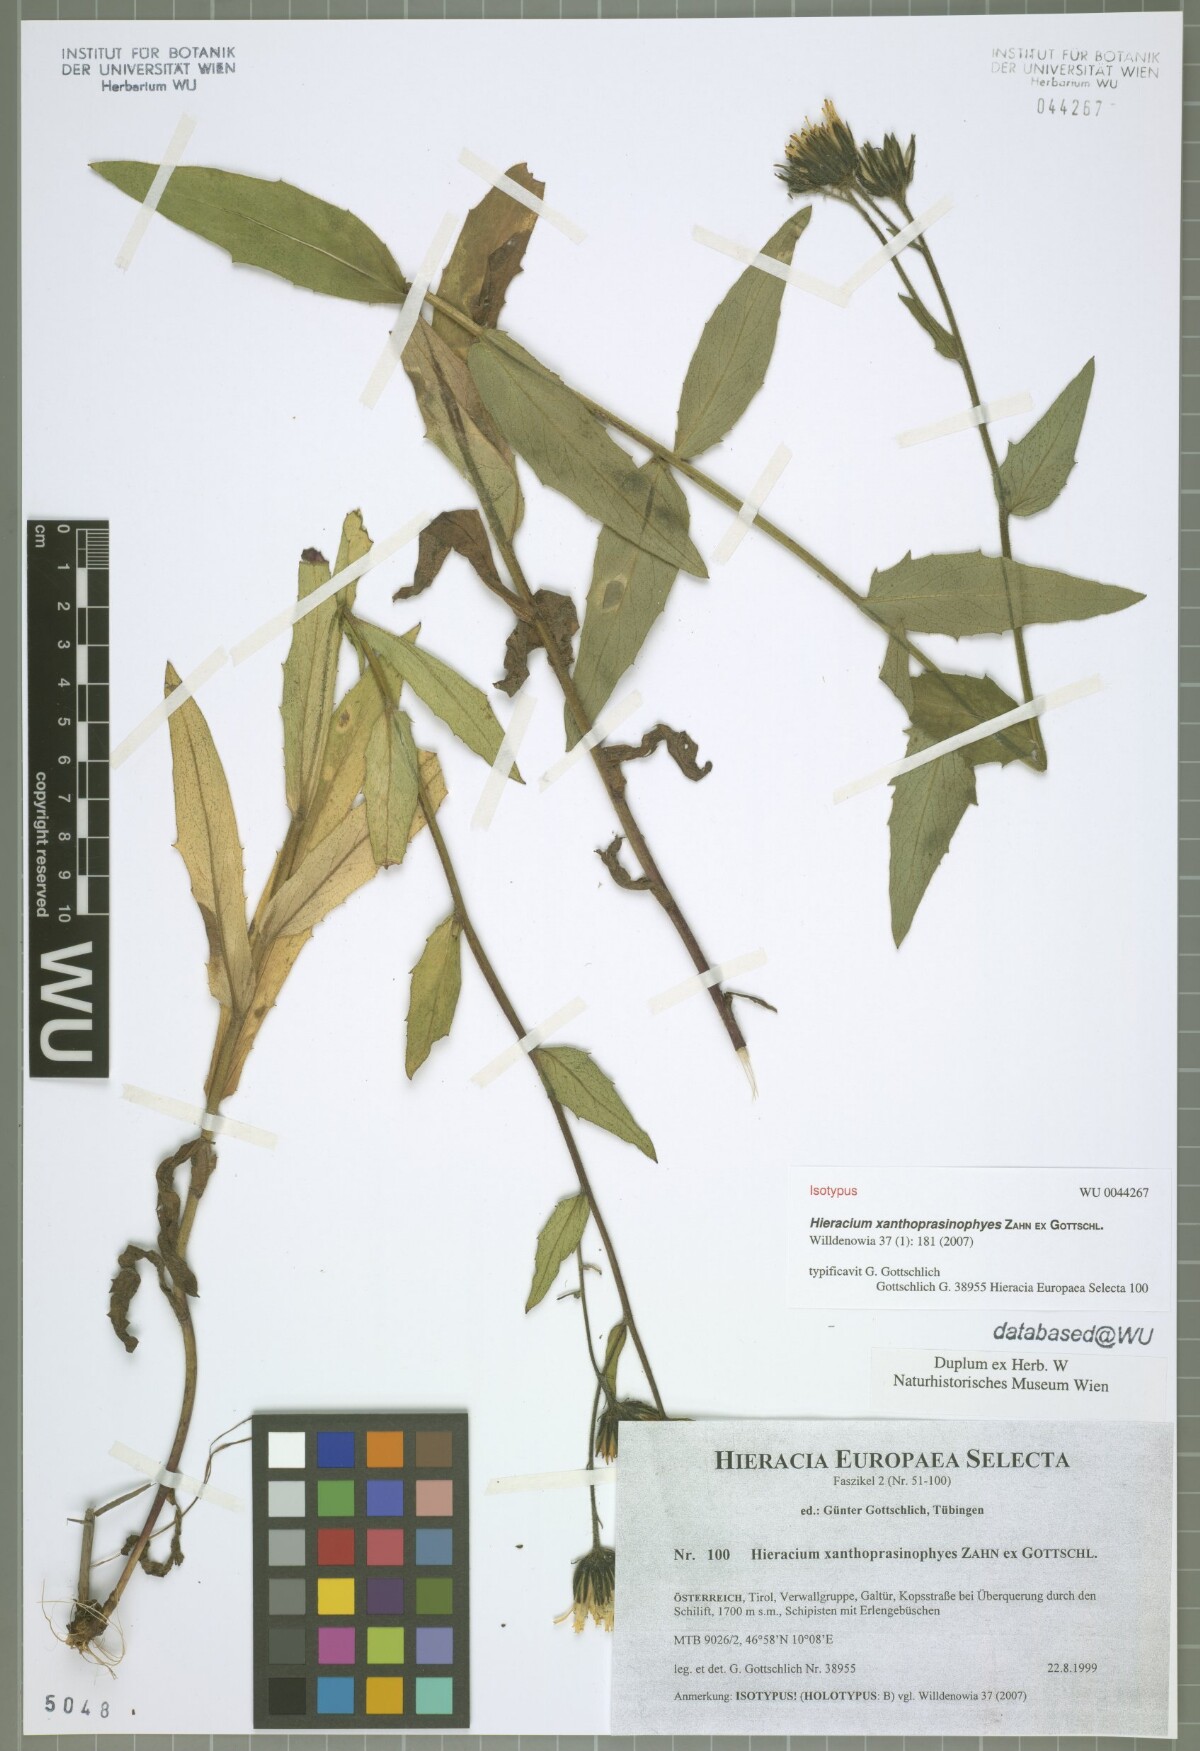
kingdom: Plantae
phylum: Tracheophyta
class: Magnoliopsida
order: Asterales
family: Asteraceae
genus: Hieracium
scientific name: Hieracium xanthoprasinophyes
